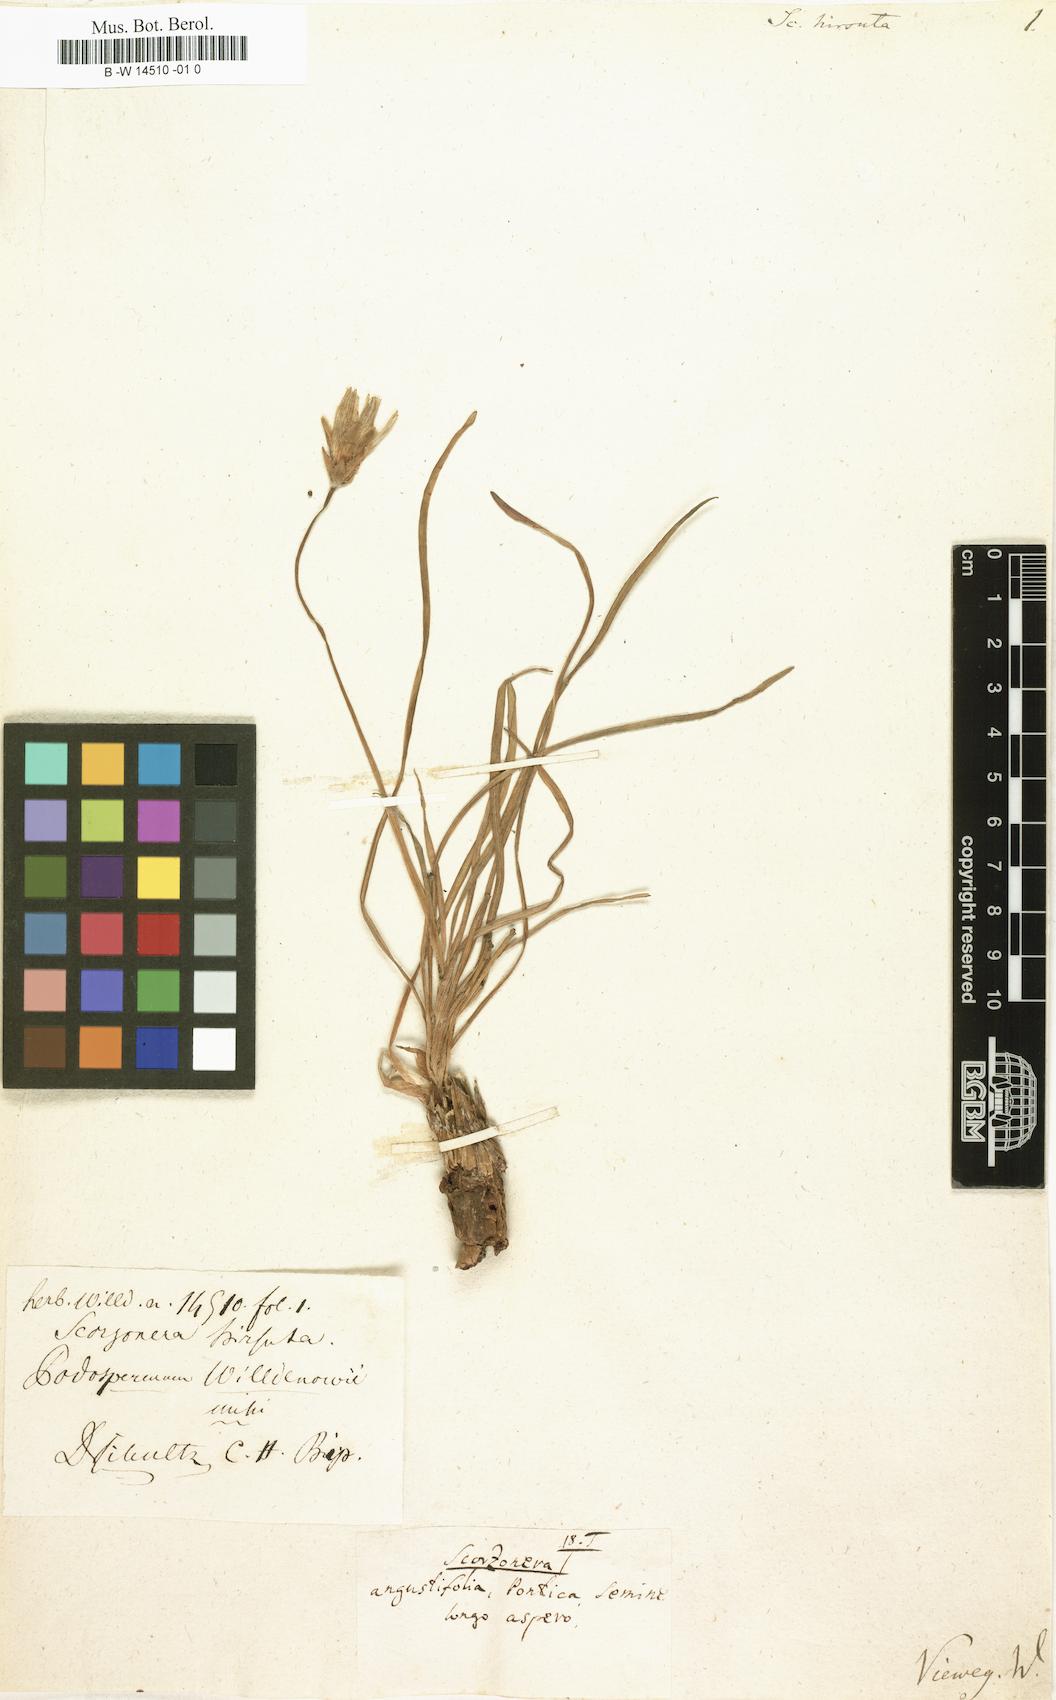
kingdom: Plantae
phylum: Tracheophyta
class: Magnoliopsida
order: Asterales
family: Asteraceae
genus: Gelasia
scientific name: Gelasia
